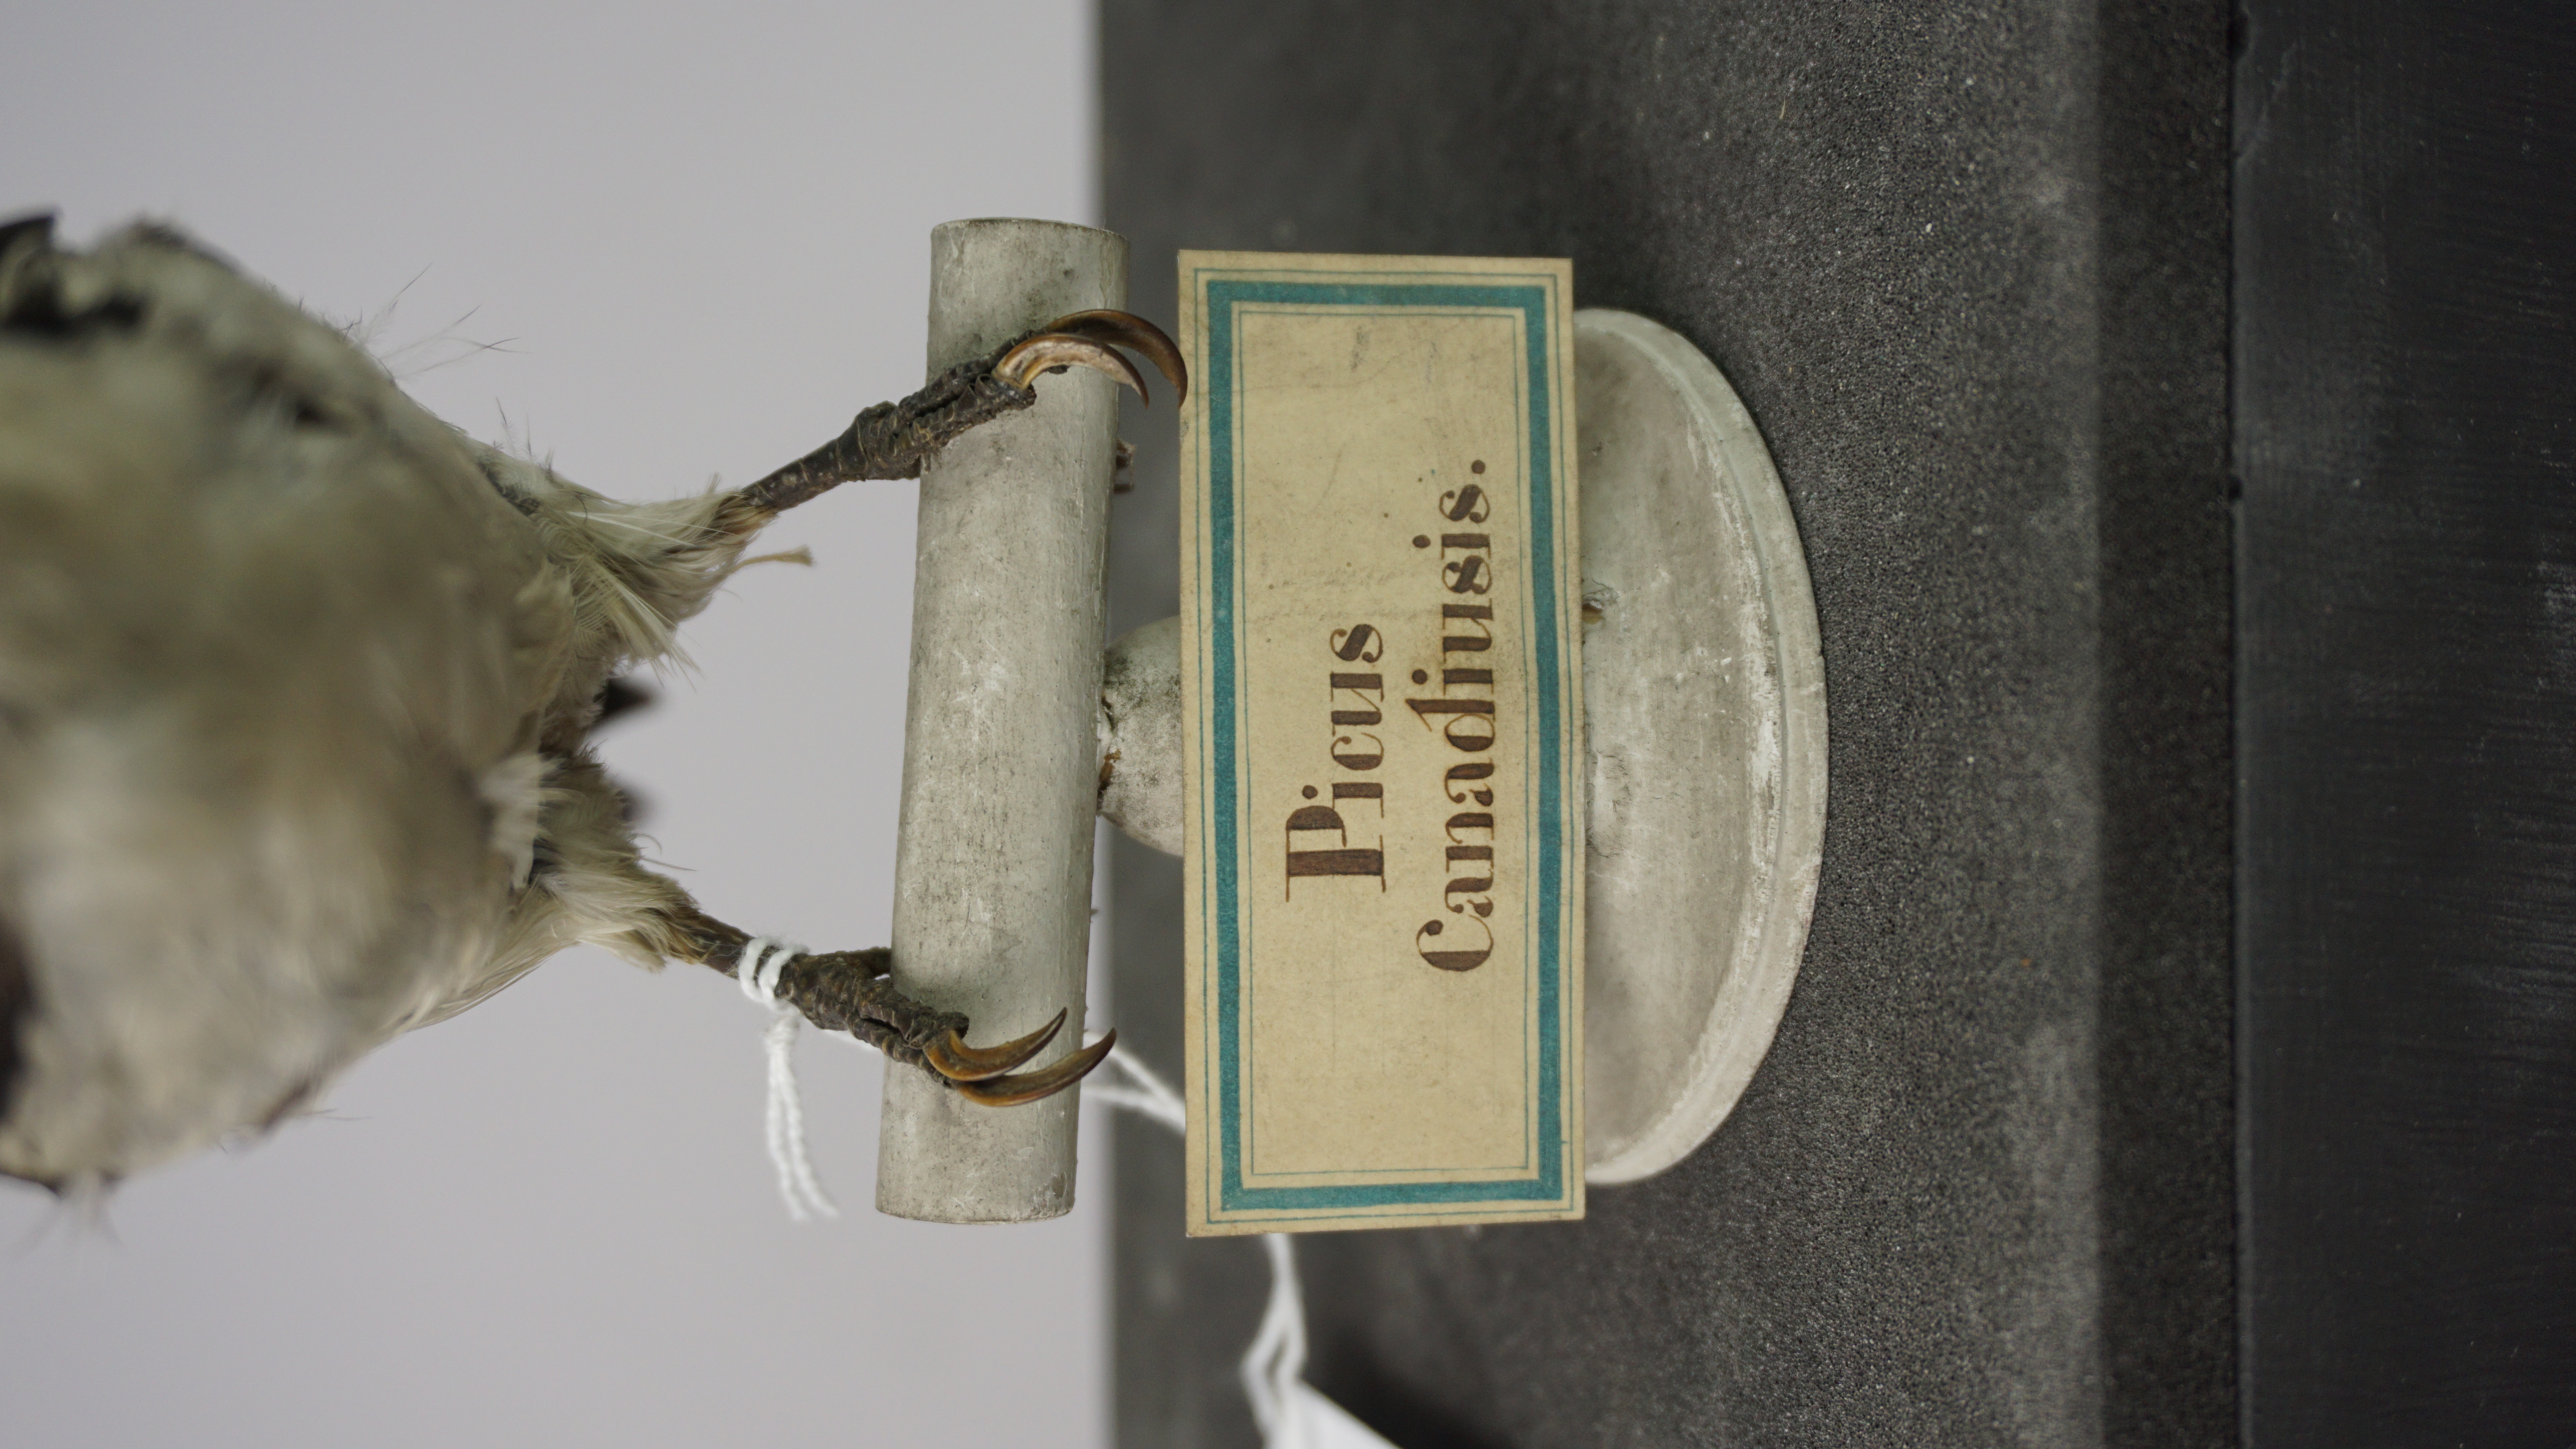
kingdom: Animalia
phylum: Chordata
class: Aves
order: Piciformes
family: Picidae
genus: Leuconotopicus
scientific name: Leuconotopicus villosus
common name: Hairy woodpecker
